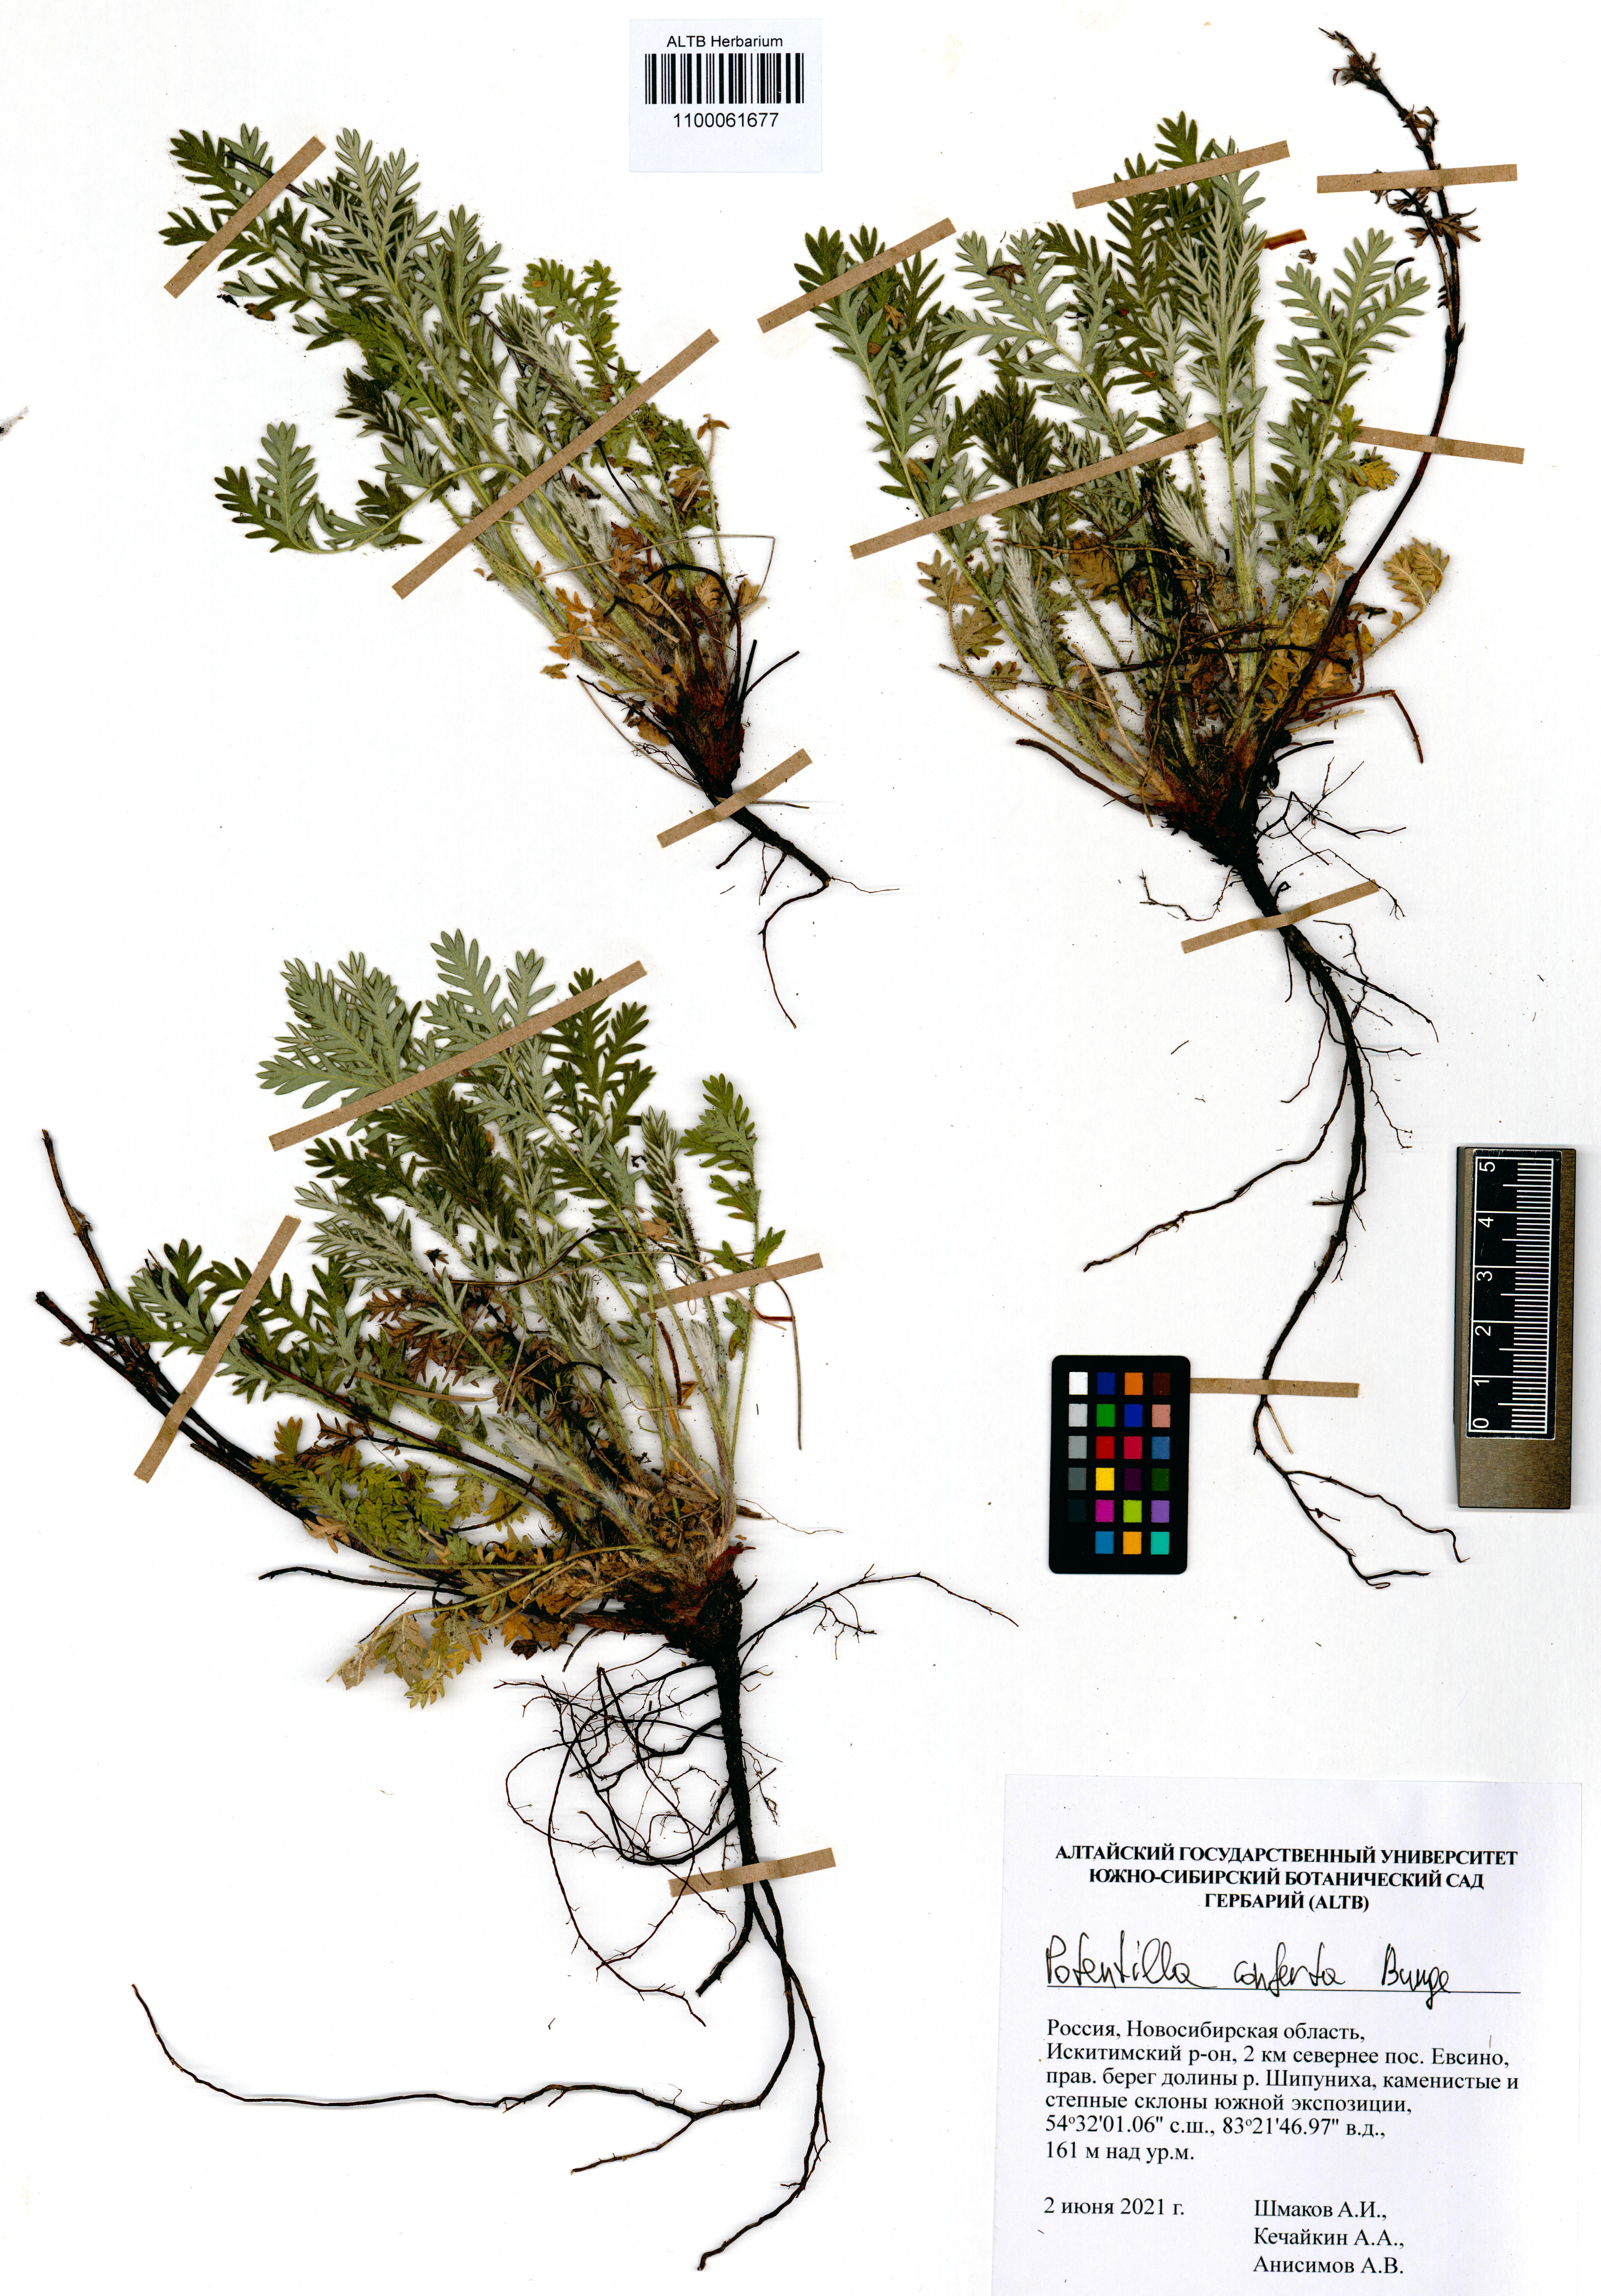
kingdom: Plantae
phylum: Tracheophyta
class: Magnoliopsida
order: Rosales
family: Rosaceae
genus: Potentilla
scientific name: Potentilla conferta
